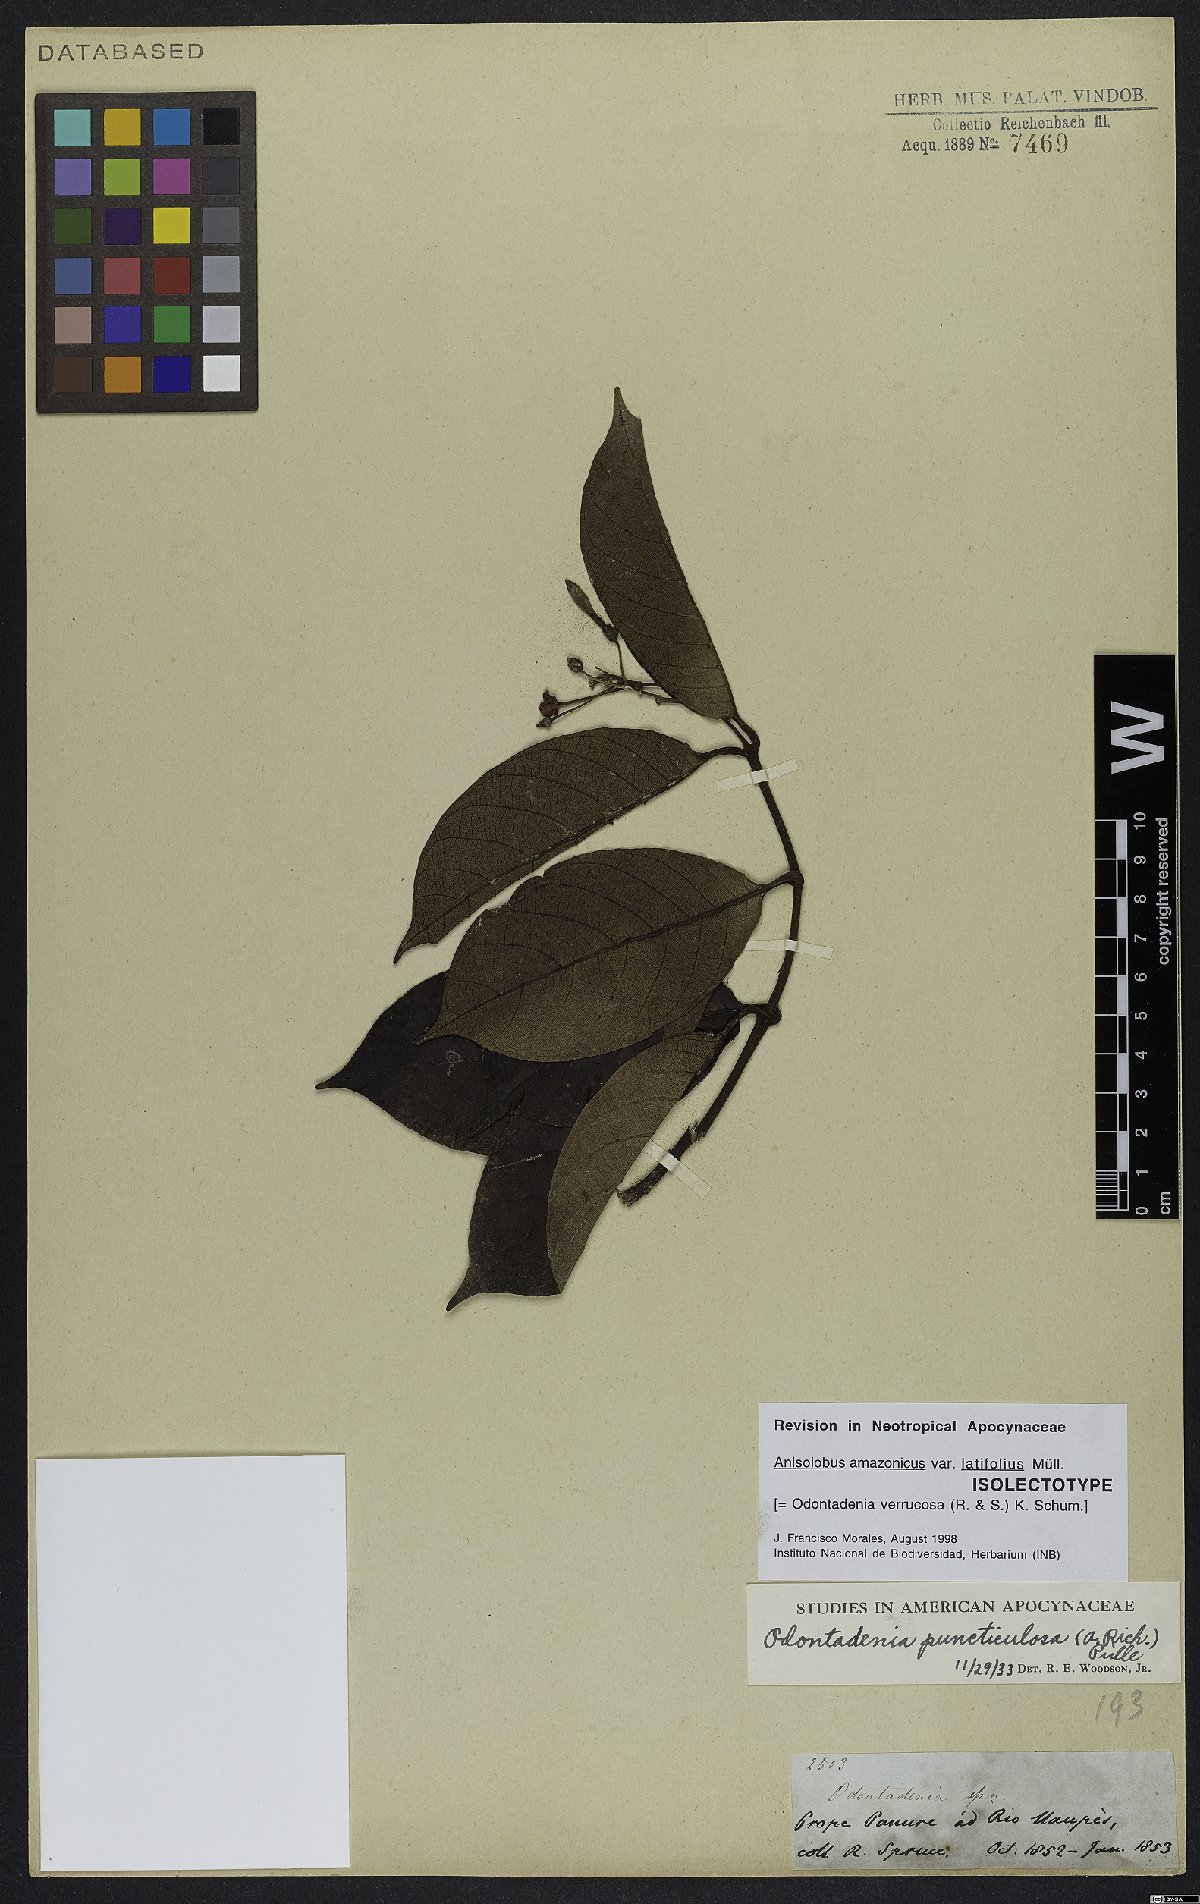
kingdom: Plantae
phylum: Tracheophyta
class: Magnoliopsida
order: Gentianales
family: Apocynaceae
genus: Odontadenia
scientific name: Odontadenia verrucosa
